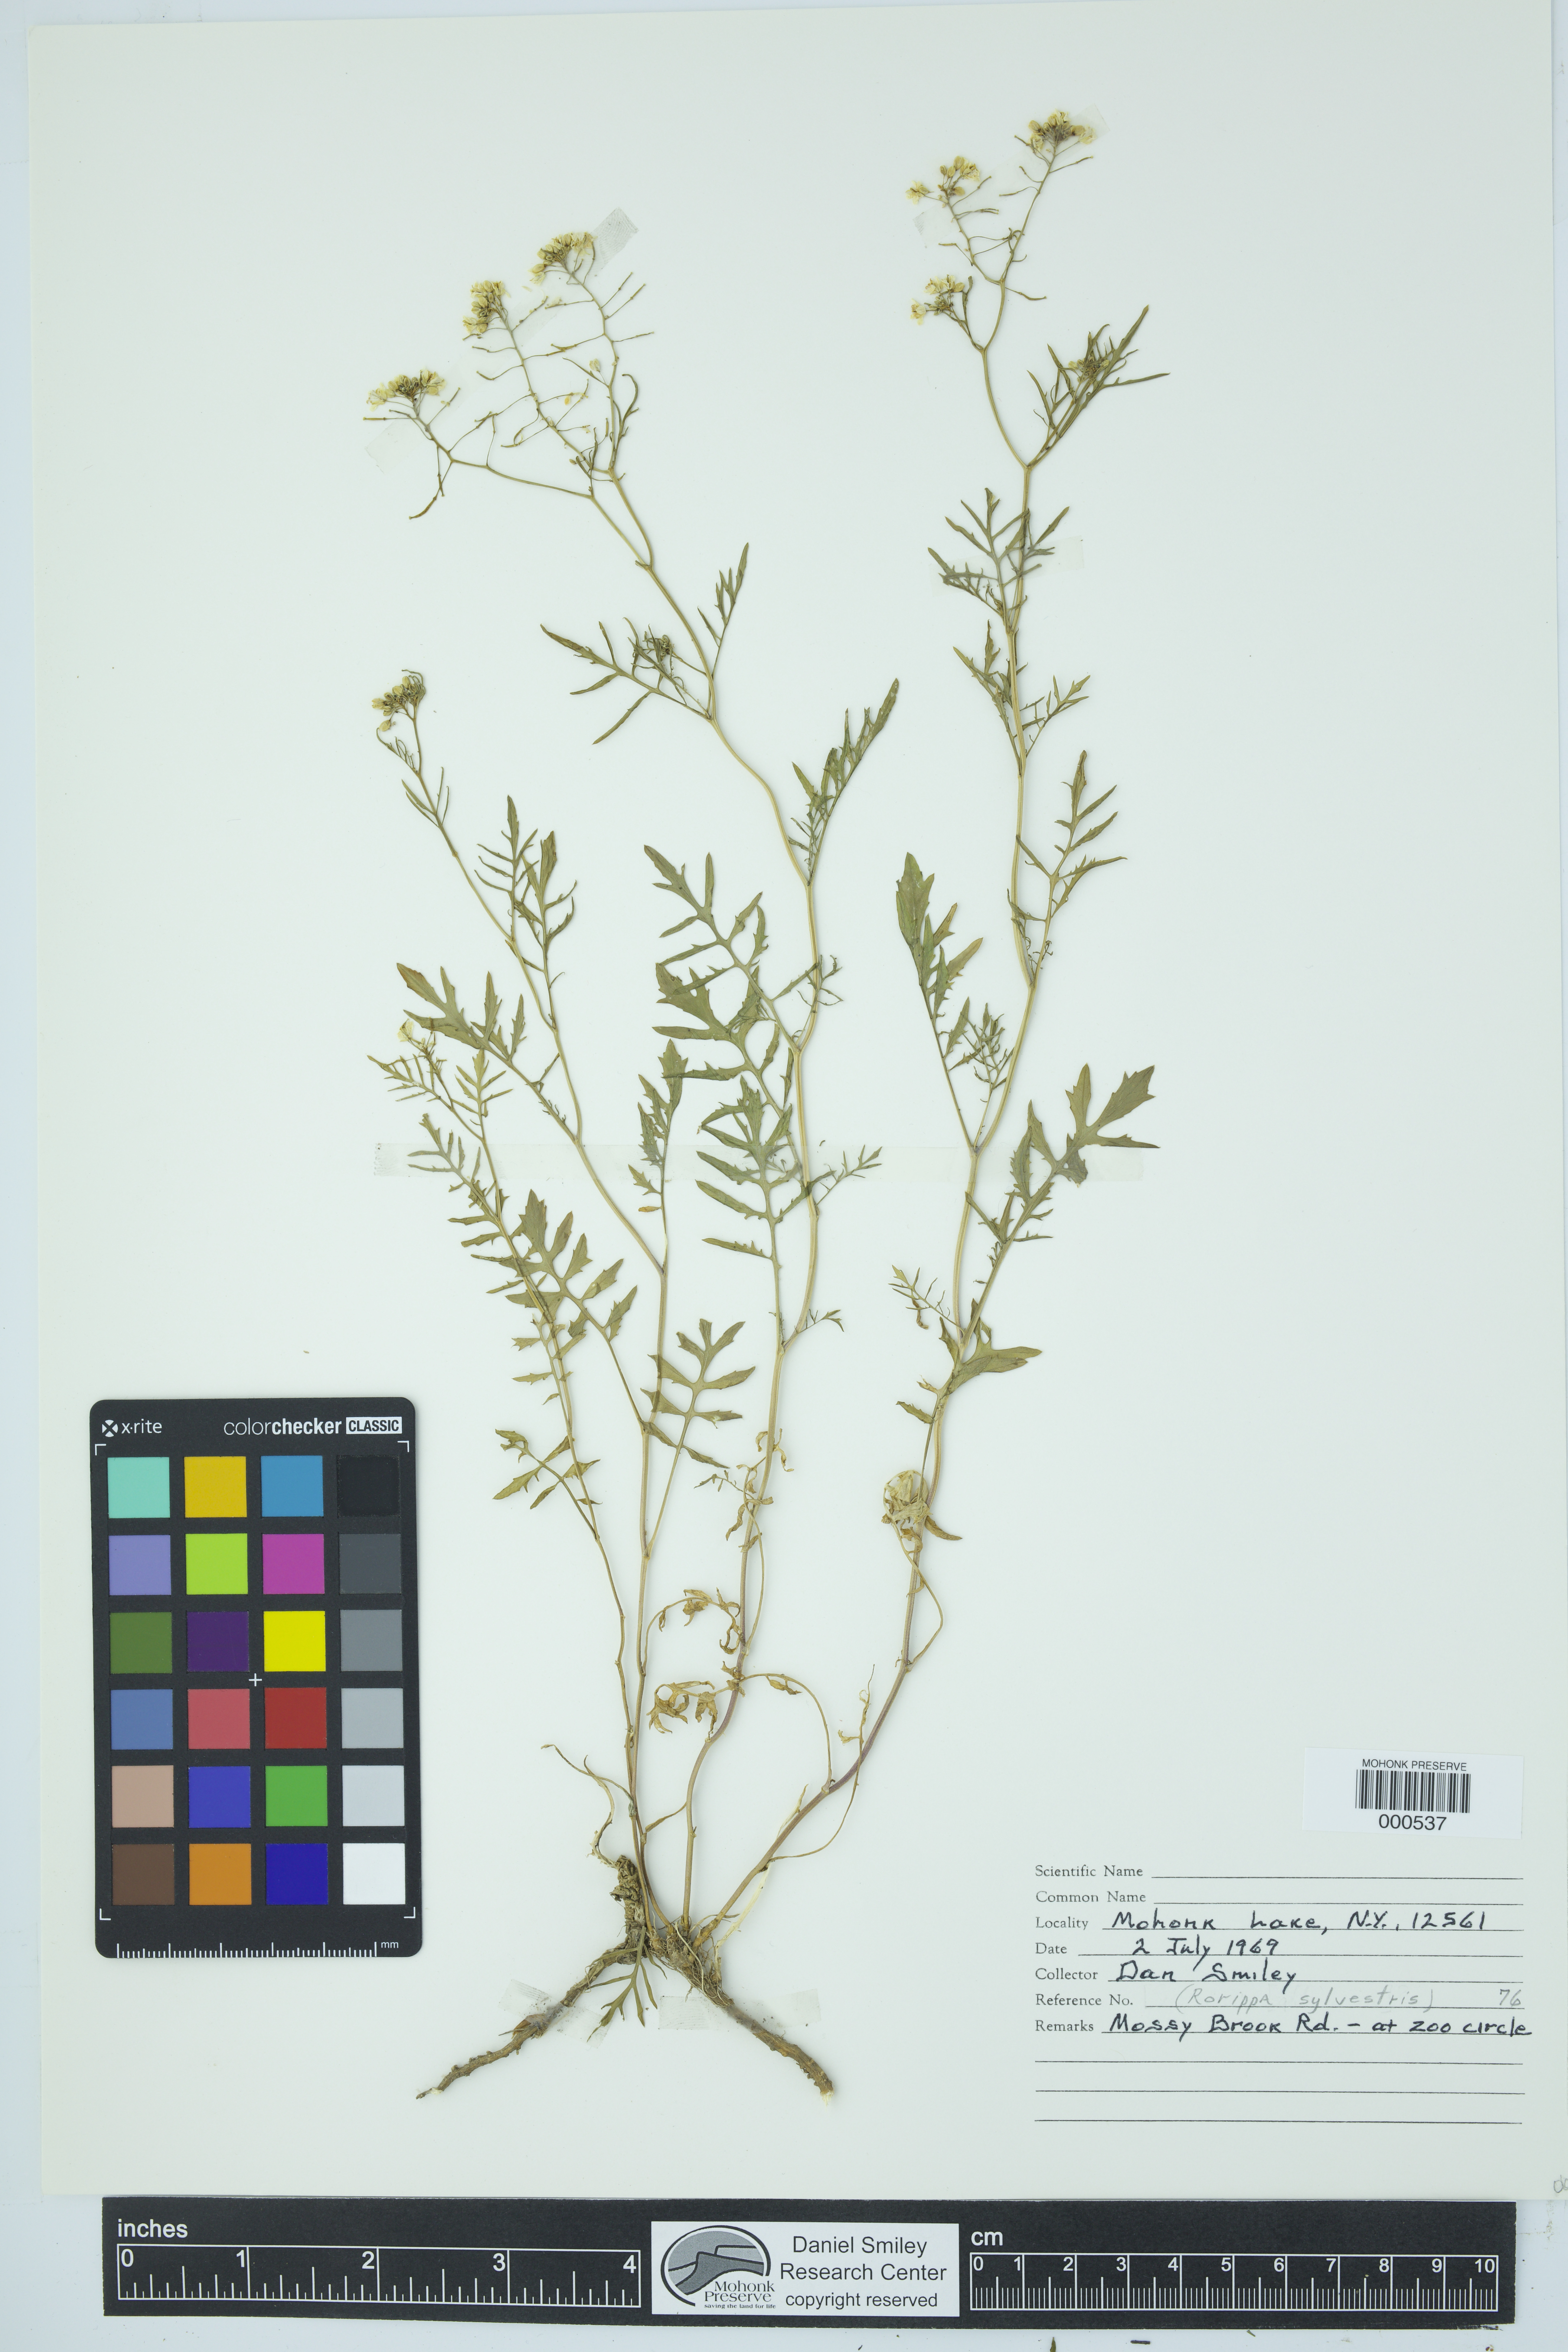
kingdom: Plantae
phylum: Tracheophyta
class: Magnoliopsida
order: Brassicales
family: Brassicaceae
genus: Rorippa
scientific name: Rorippa sylvestris
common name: Creeping yellowcress
